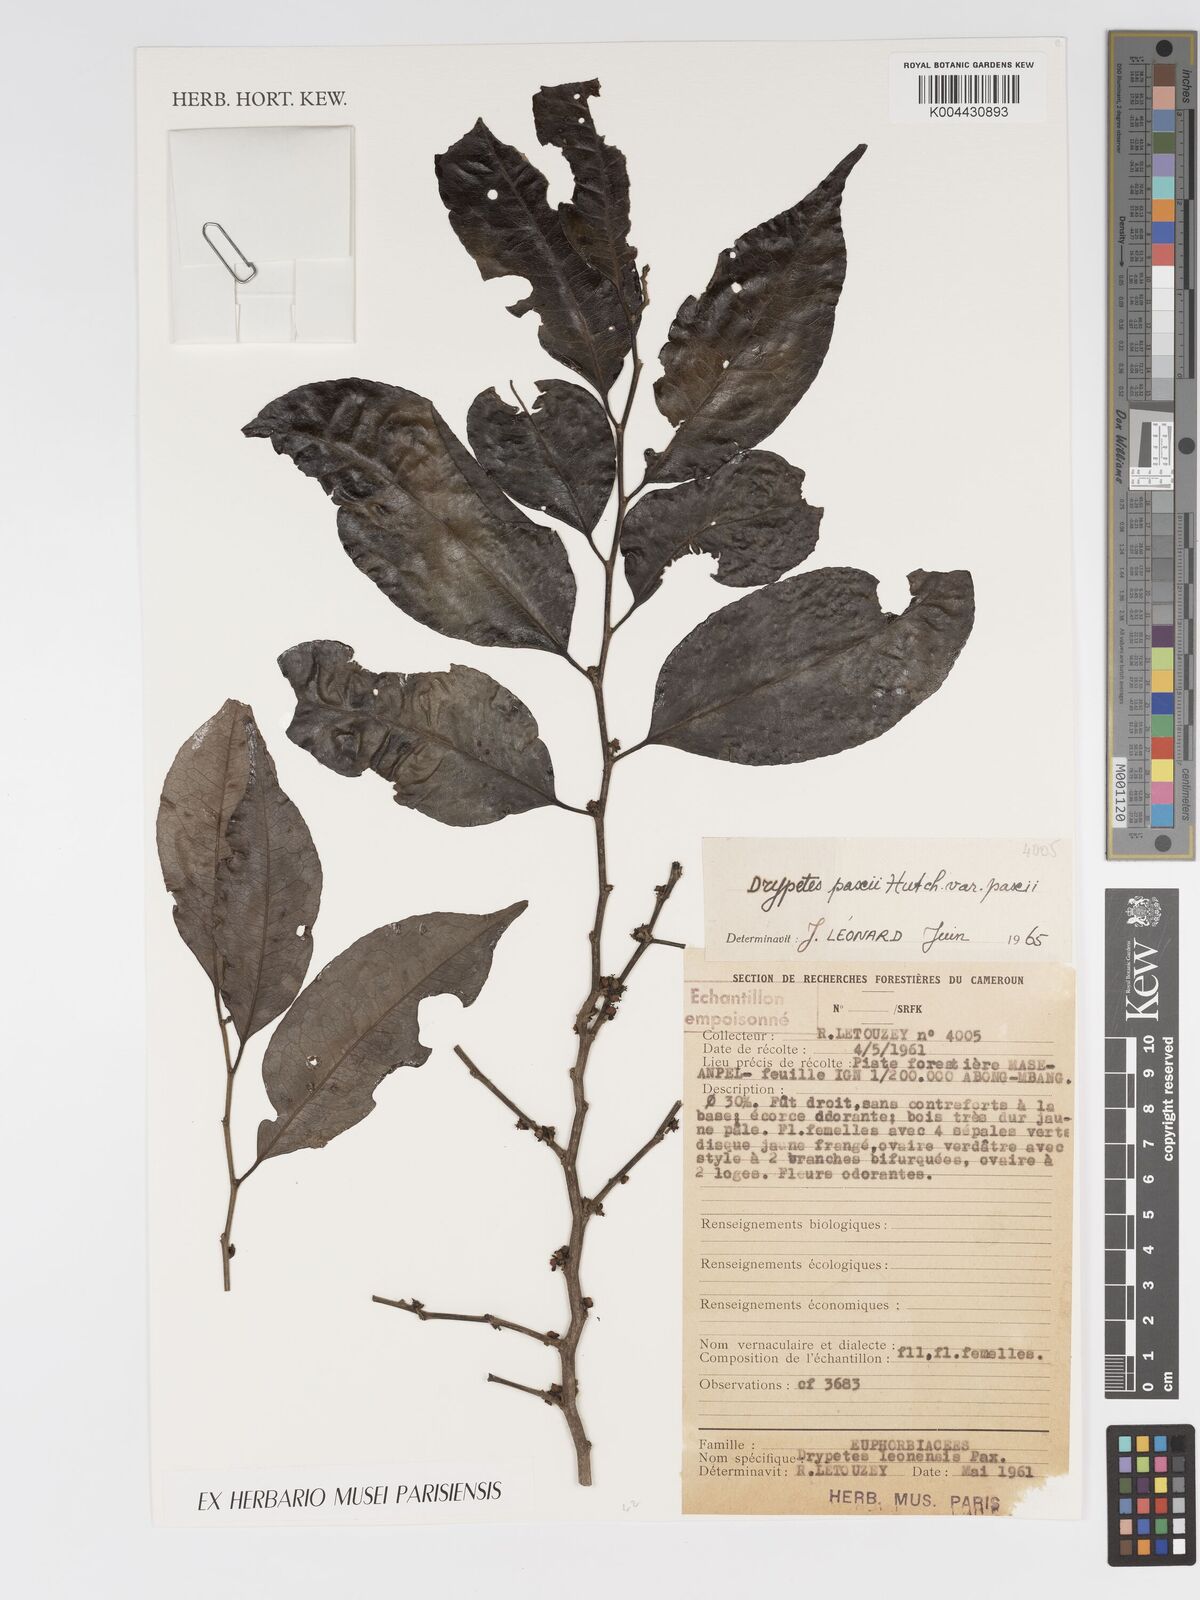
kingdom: Plantae
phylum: Tracheophyta
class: Magnoliopsida
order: Malpighiales
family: Putranjivaceae
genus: Drypetes
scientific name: Drypetes paxii
